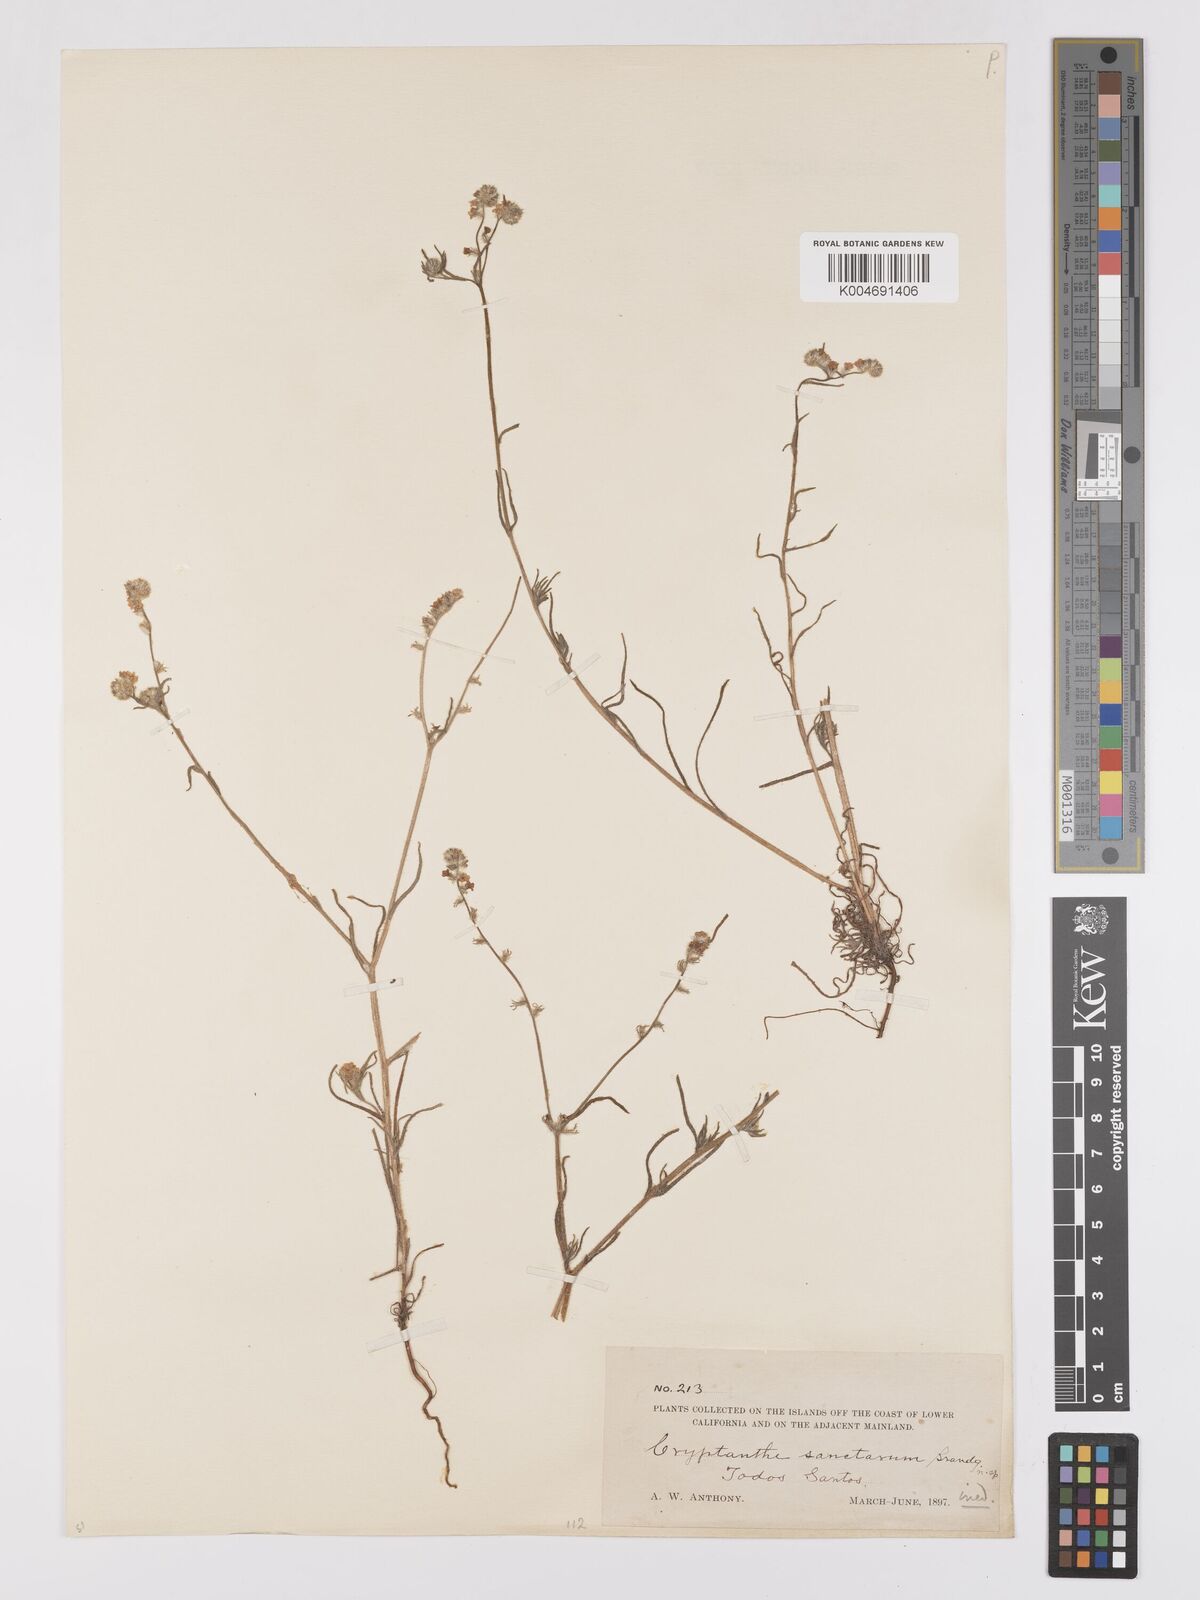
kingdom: Plantae
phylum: Tracheophyta
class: Magnoliopsida
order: Boraginales
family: Boraginaceae
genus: Cryptantha
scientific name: Cryptantha intermedia
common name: Clearwater cryptantha
